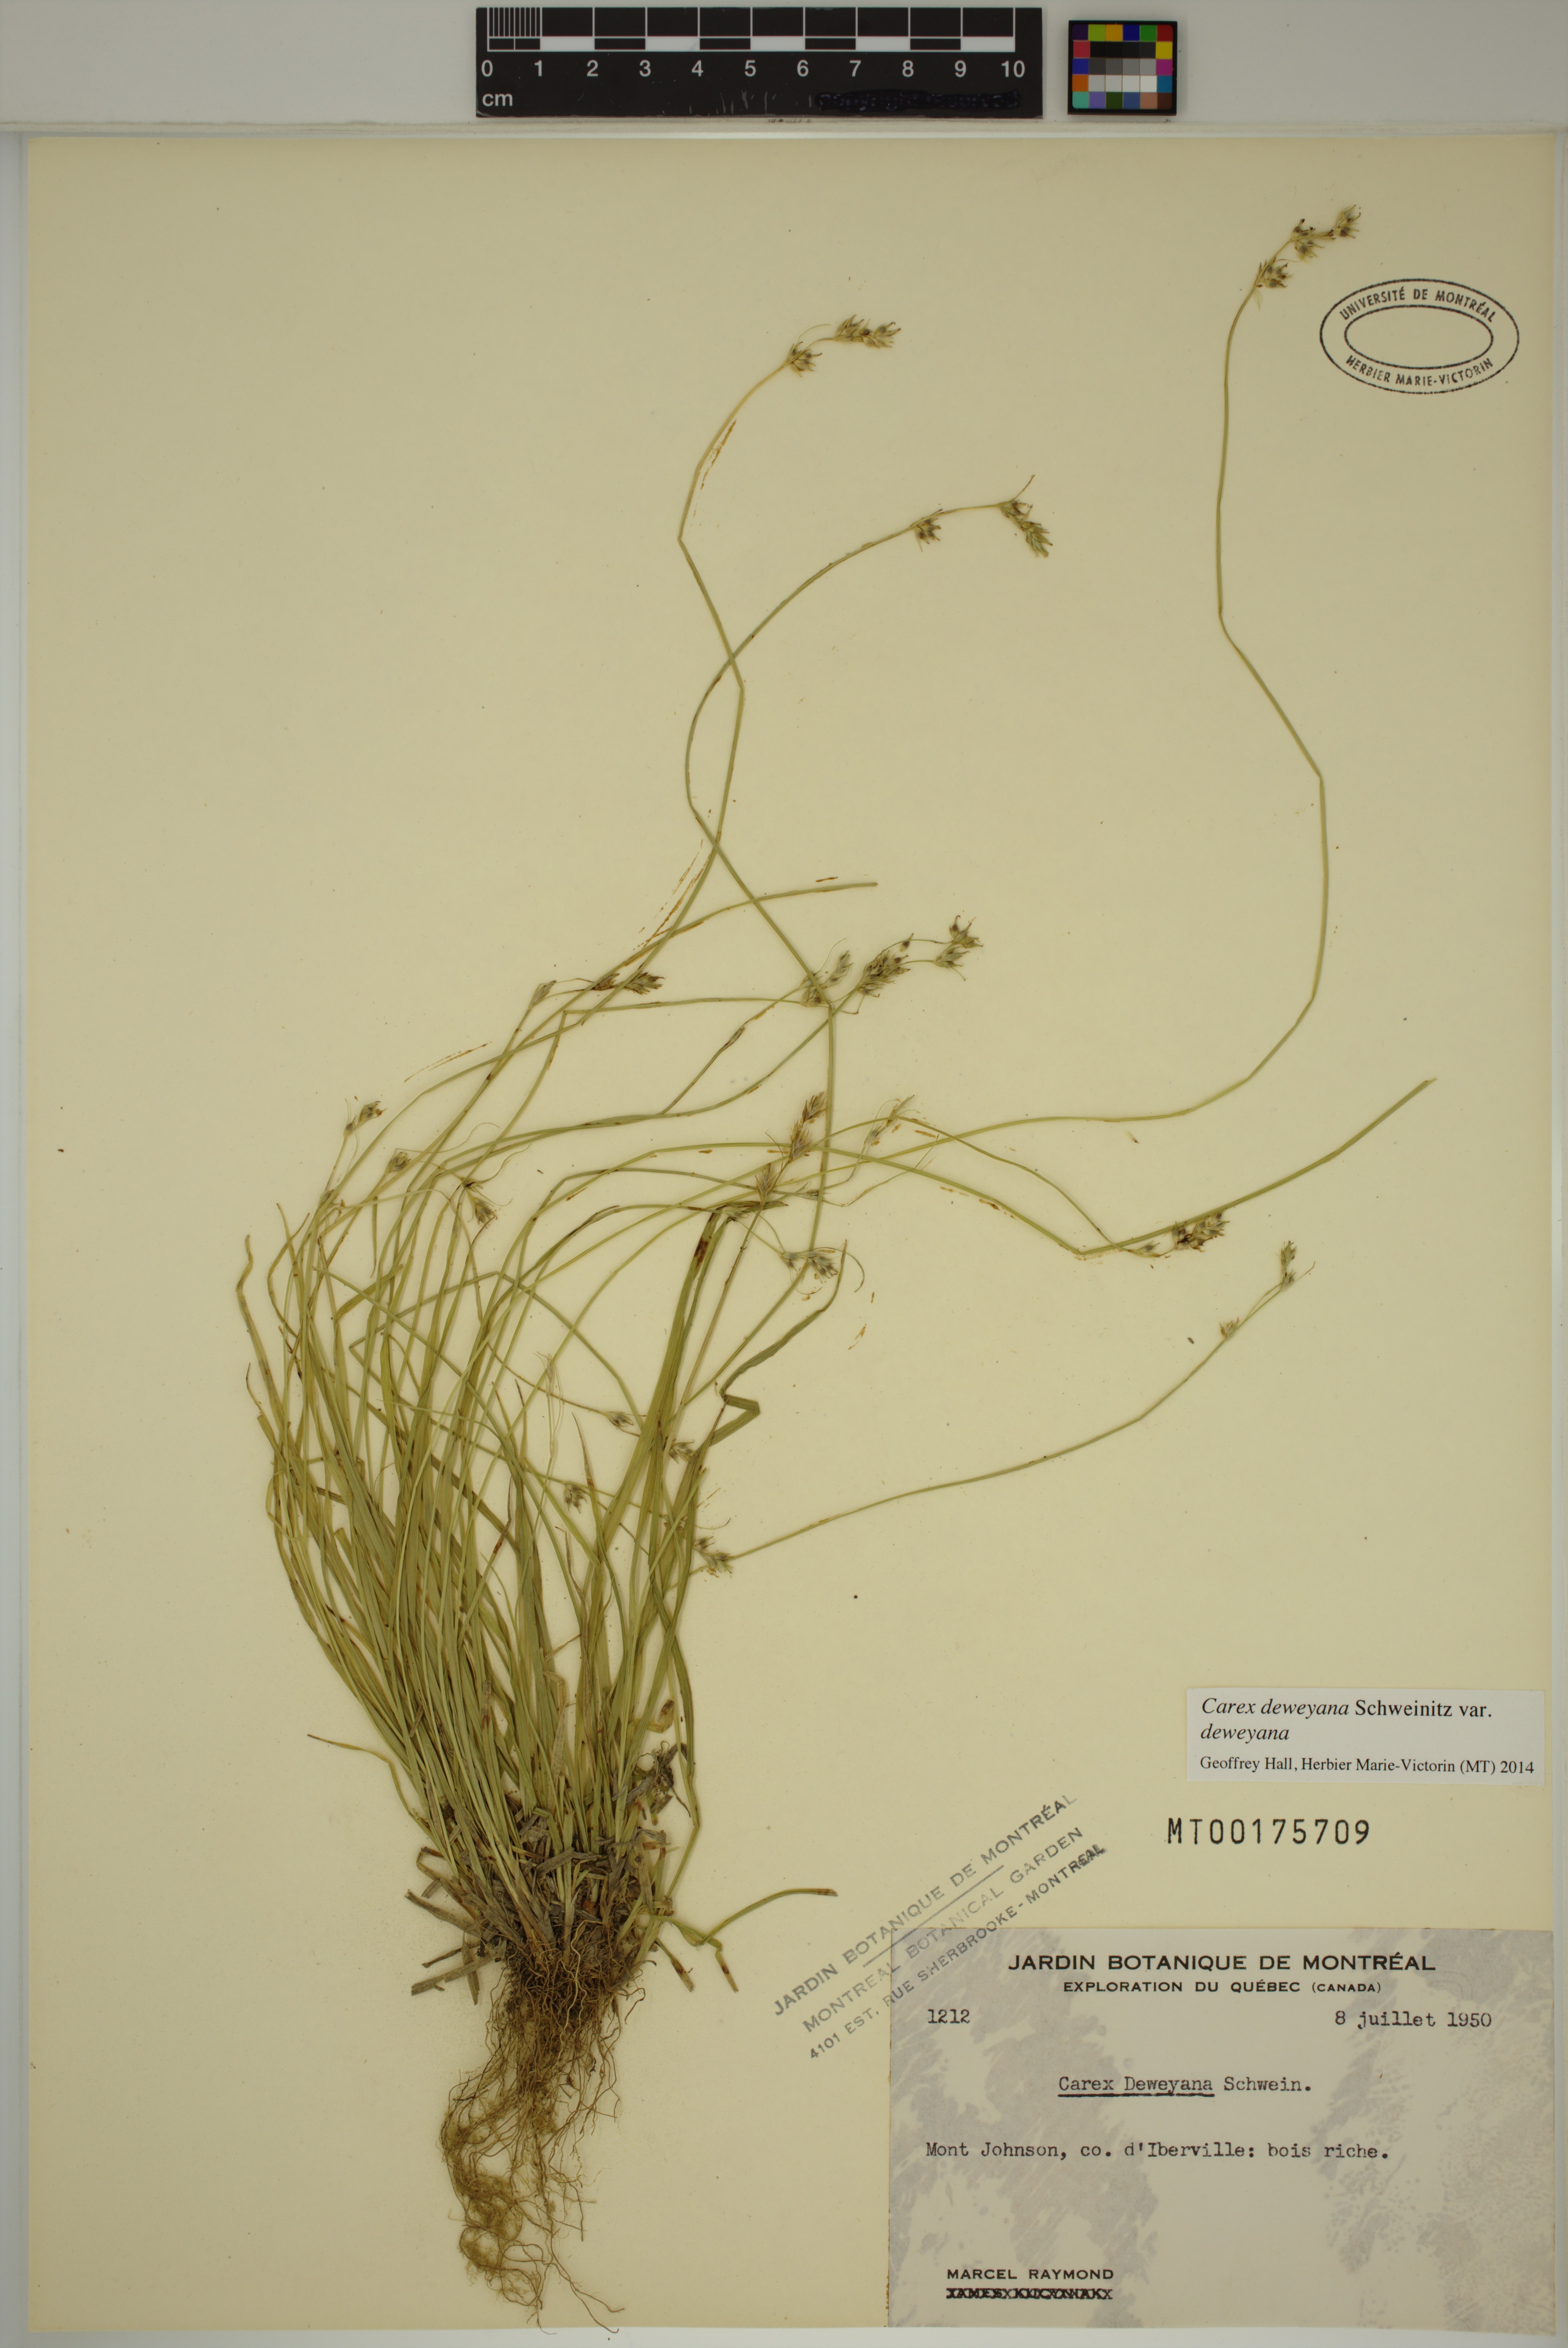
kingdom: Plantae
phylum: Tracheophyta
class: Liliopsida
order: Poales
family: Cyperaceae
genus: Carex
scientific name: Carex deweyana
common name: Dewey's sedge
